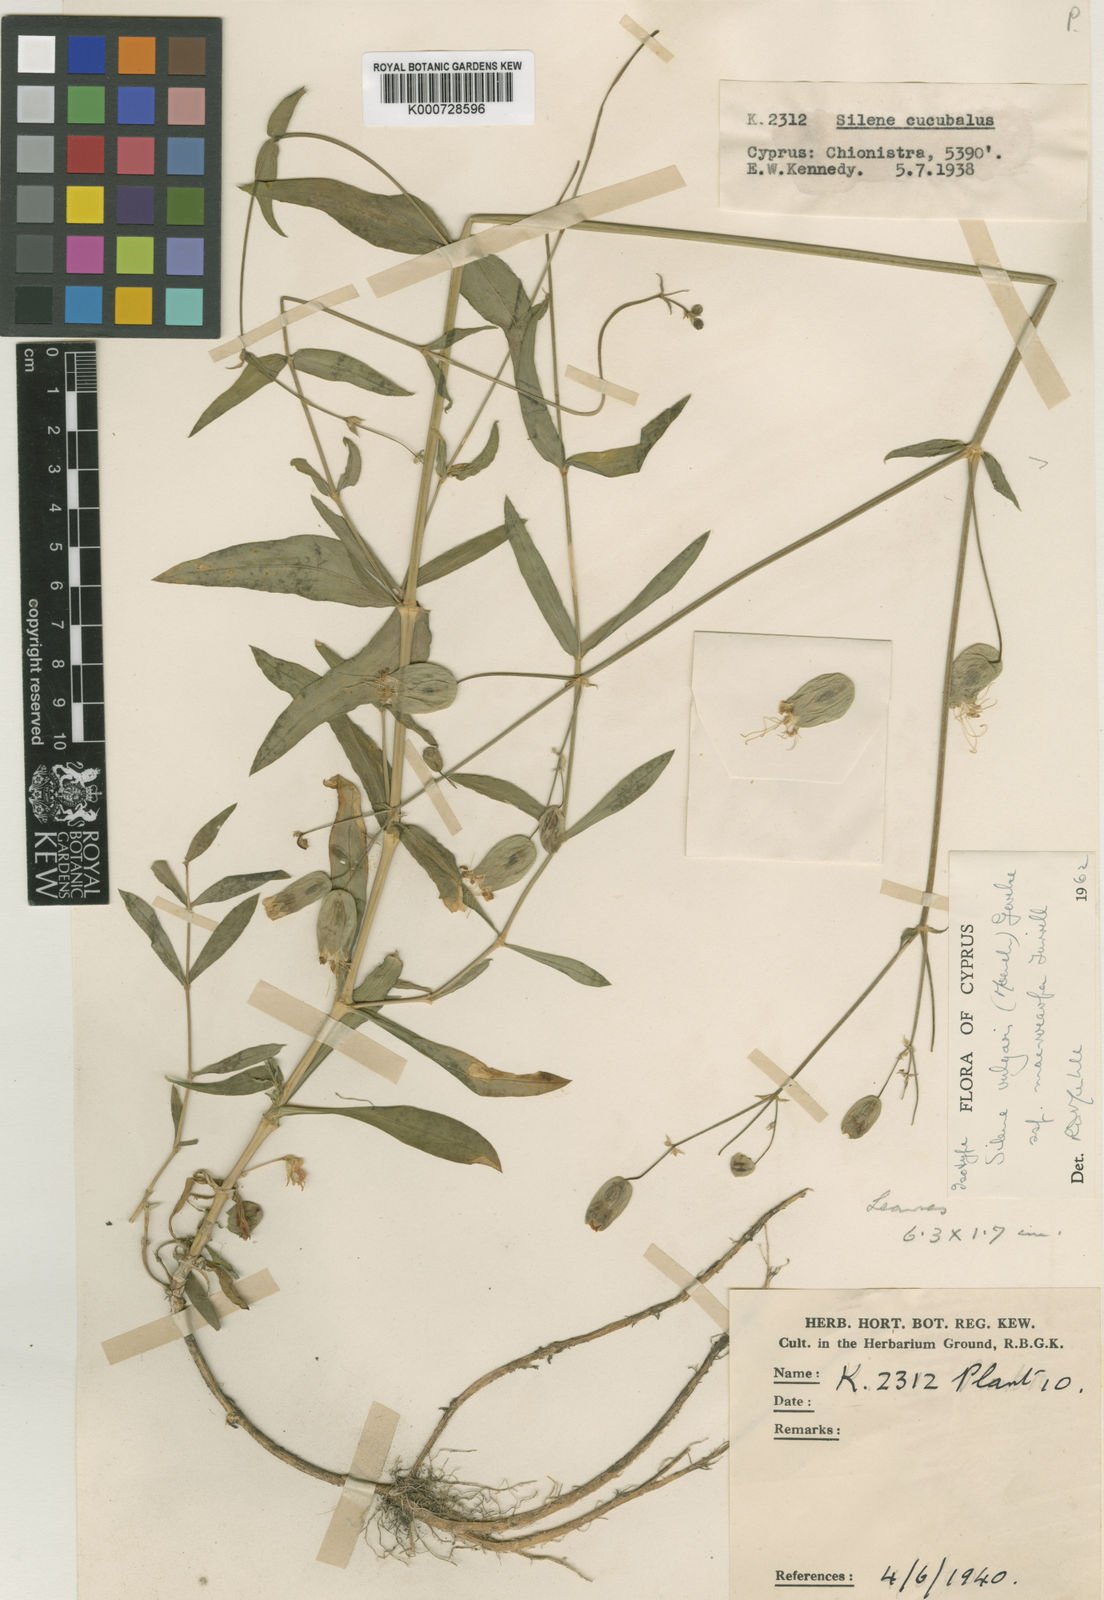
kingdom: Plantae
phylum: Tracheophyta
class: Magnoliopsida
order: Caryophyllales
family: Caryophyllaceae
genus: Silene
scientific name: Silene vulgaris
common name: Bladder campion
